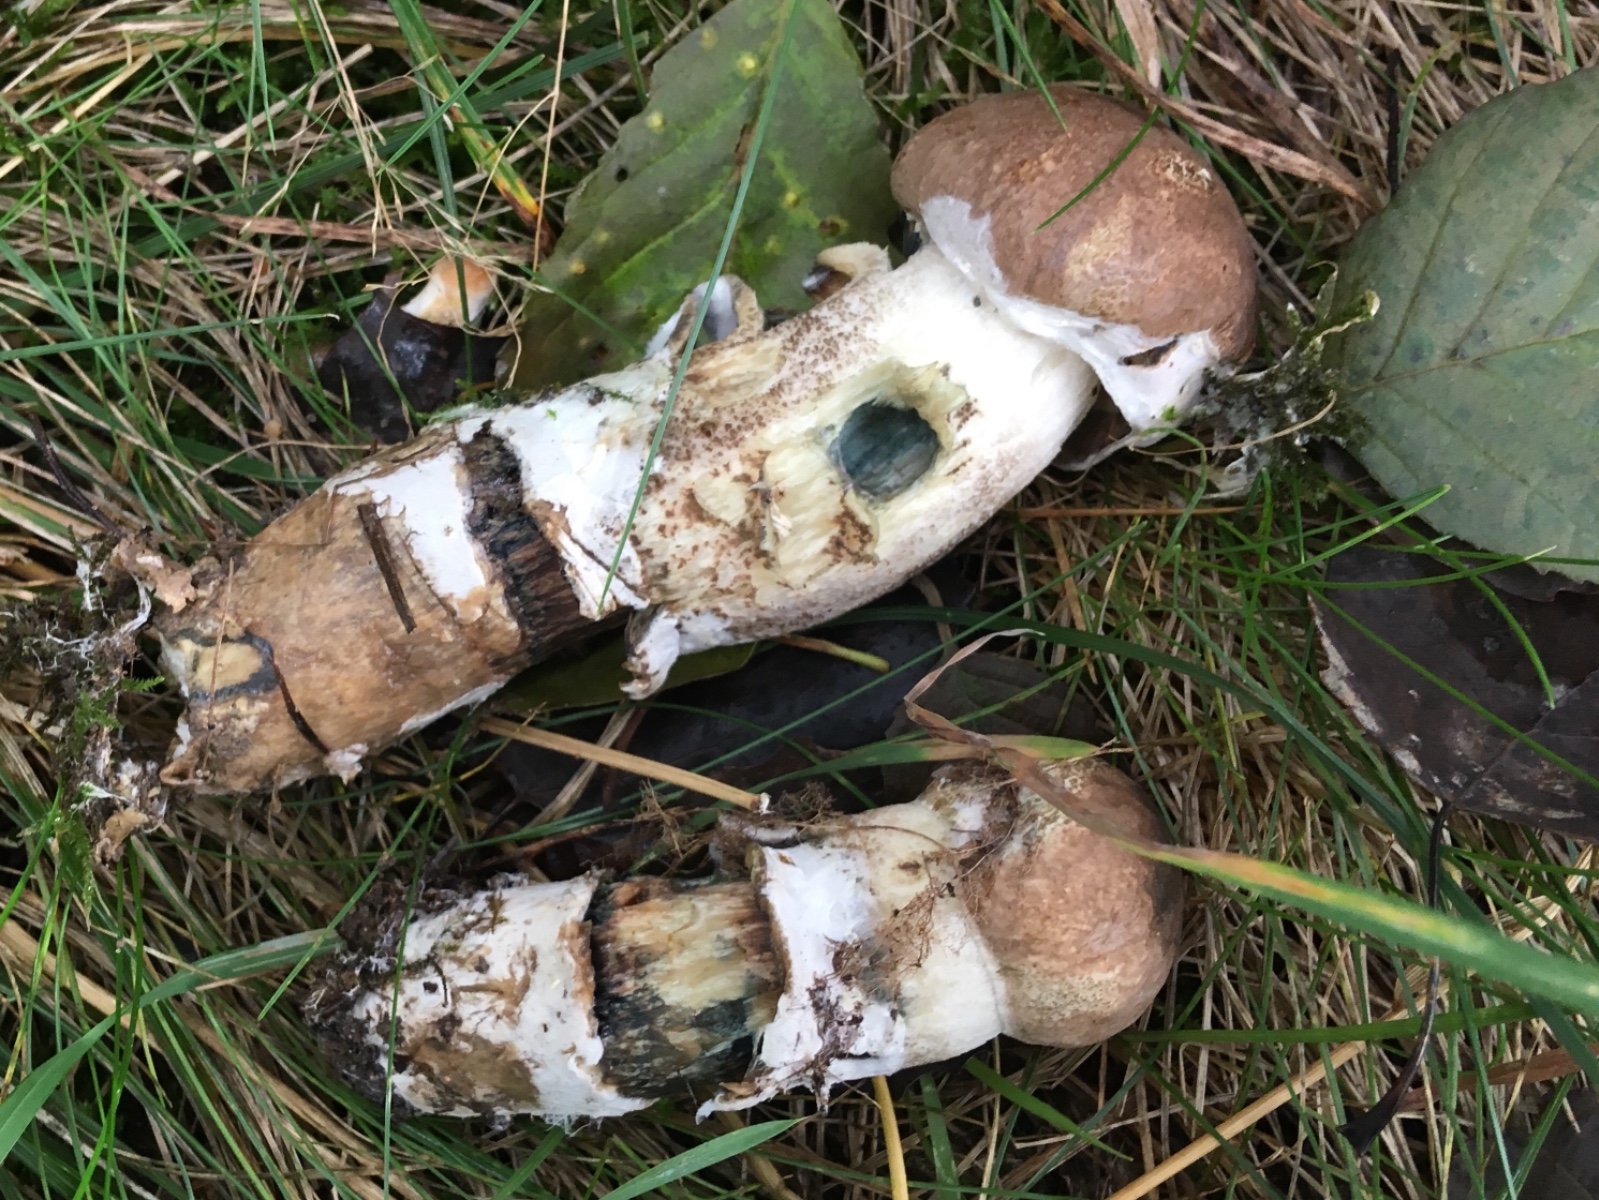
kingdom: Fungi
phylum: Basidiomycota
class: Agaricomycetes
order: Boletales
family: Gomphidiaceae
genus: Gomphidius
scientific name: Gomphidius glutinosus
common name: grå slimslør
